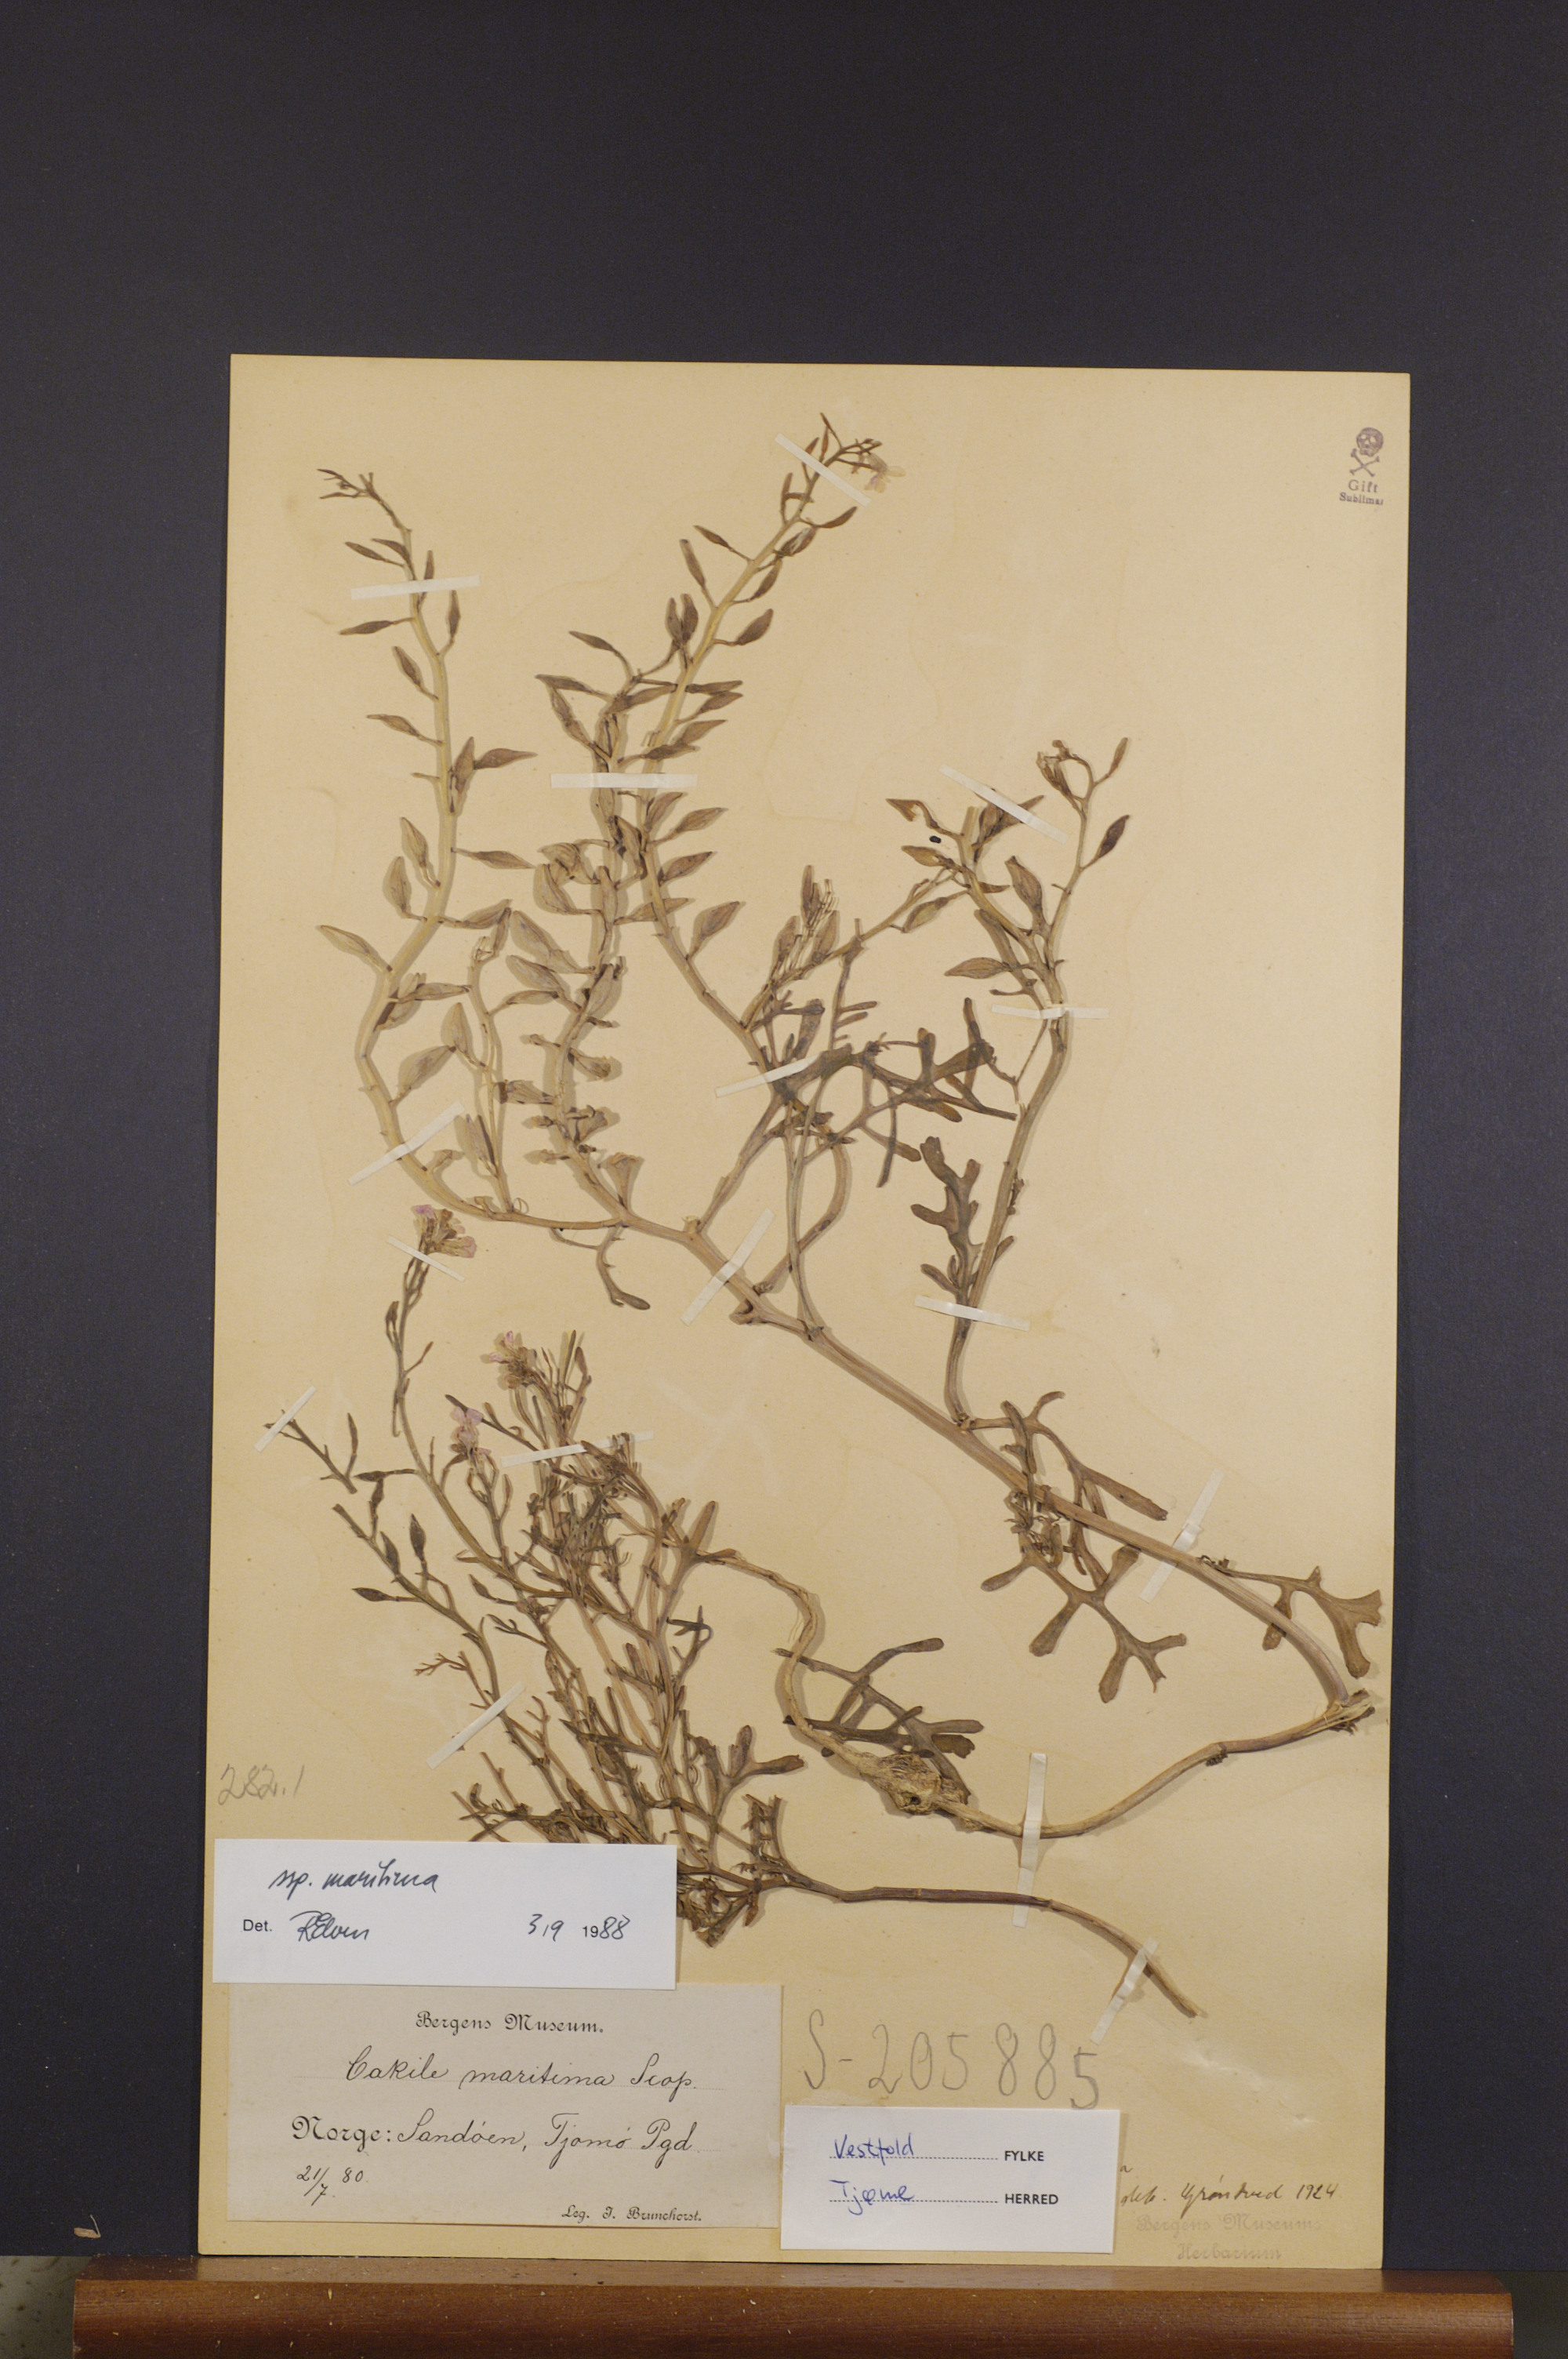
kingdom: Plantae
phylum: Tracheophyta
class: Magnoliopsida
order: Brassicales
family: Brassicaceae
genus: Cakile
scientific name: Cakile maritima
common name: Sea rocket
